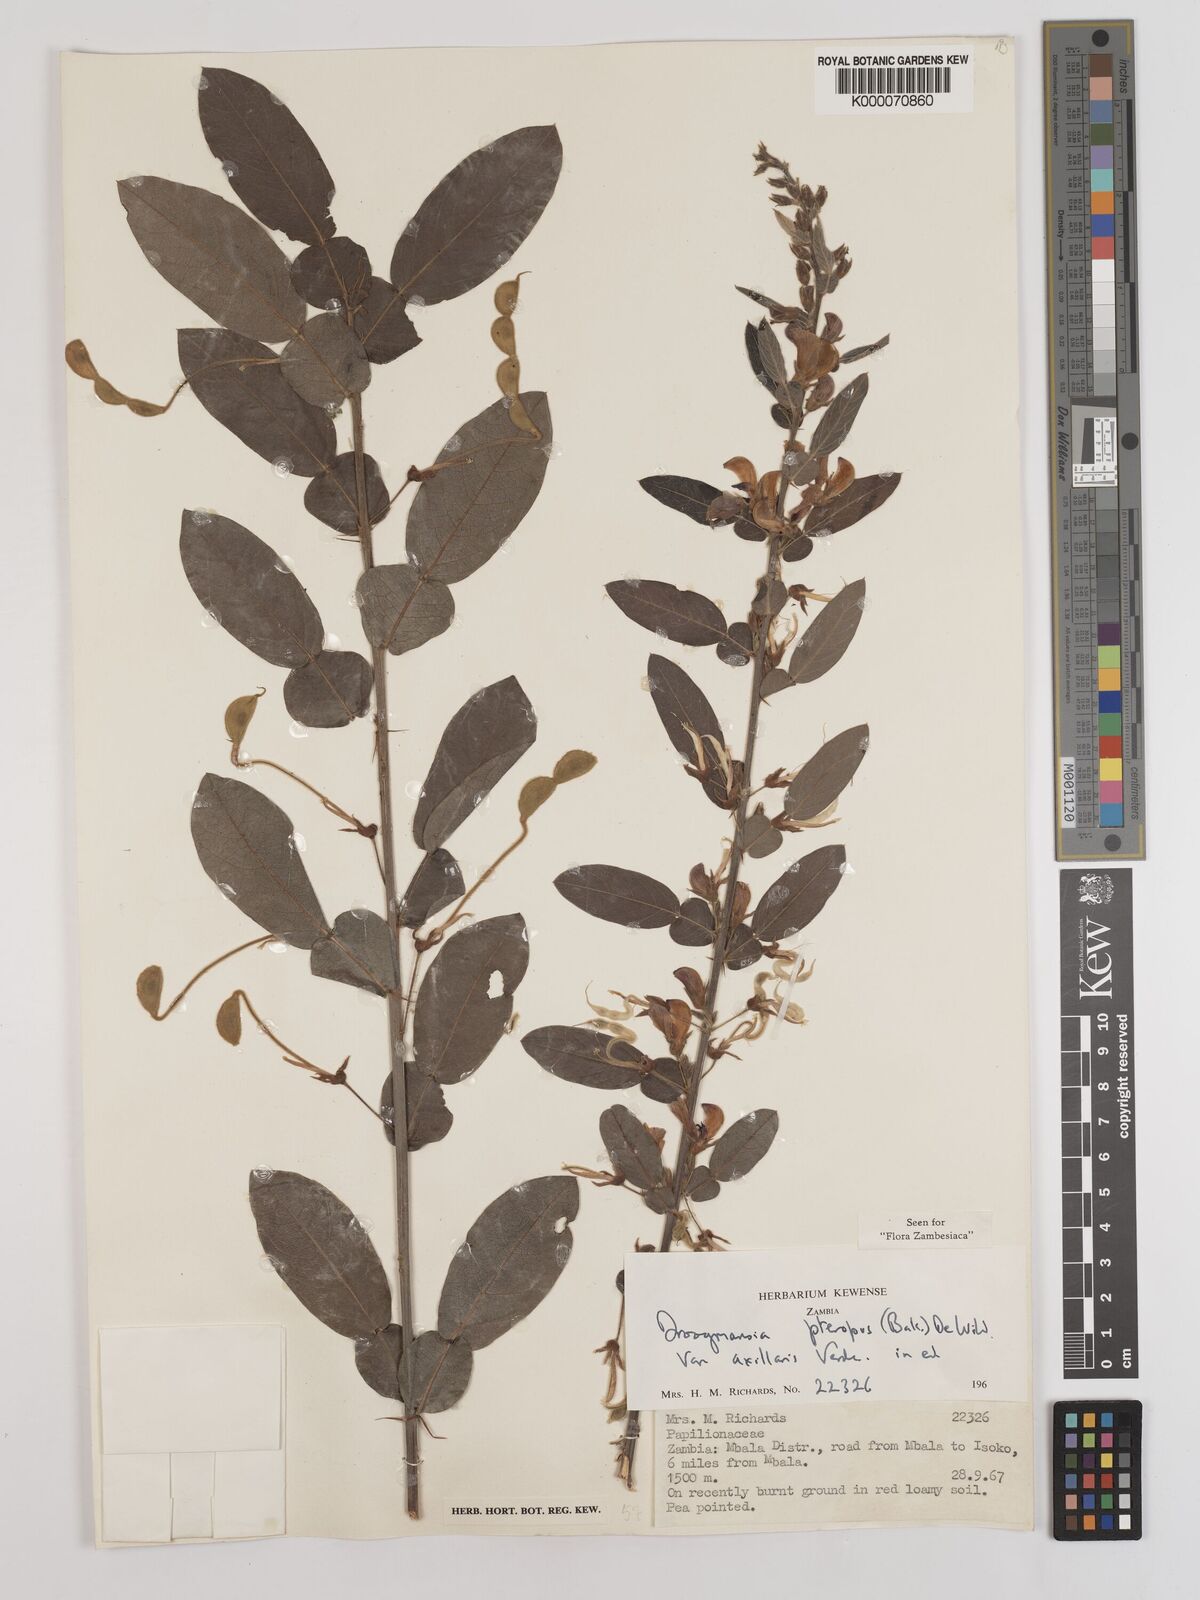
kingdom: Plantae
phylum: Tracheophyta
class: Magnoliopsida
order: Fabales
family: Fabaceae
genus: Droogmansia
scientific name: Droogmansia pteropus
